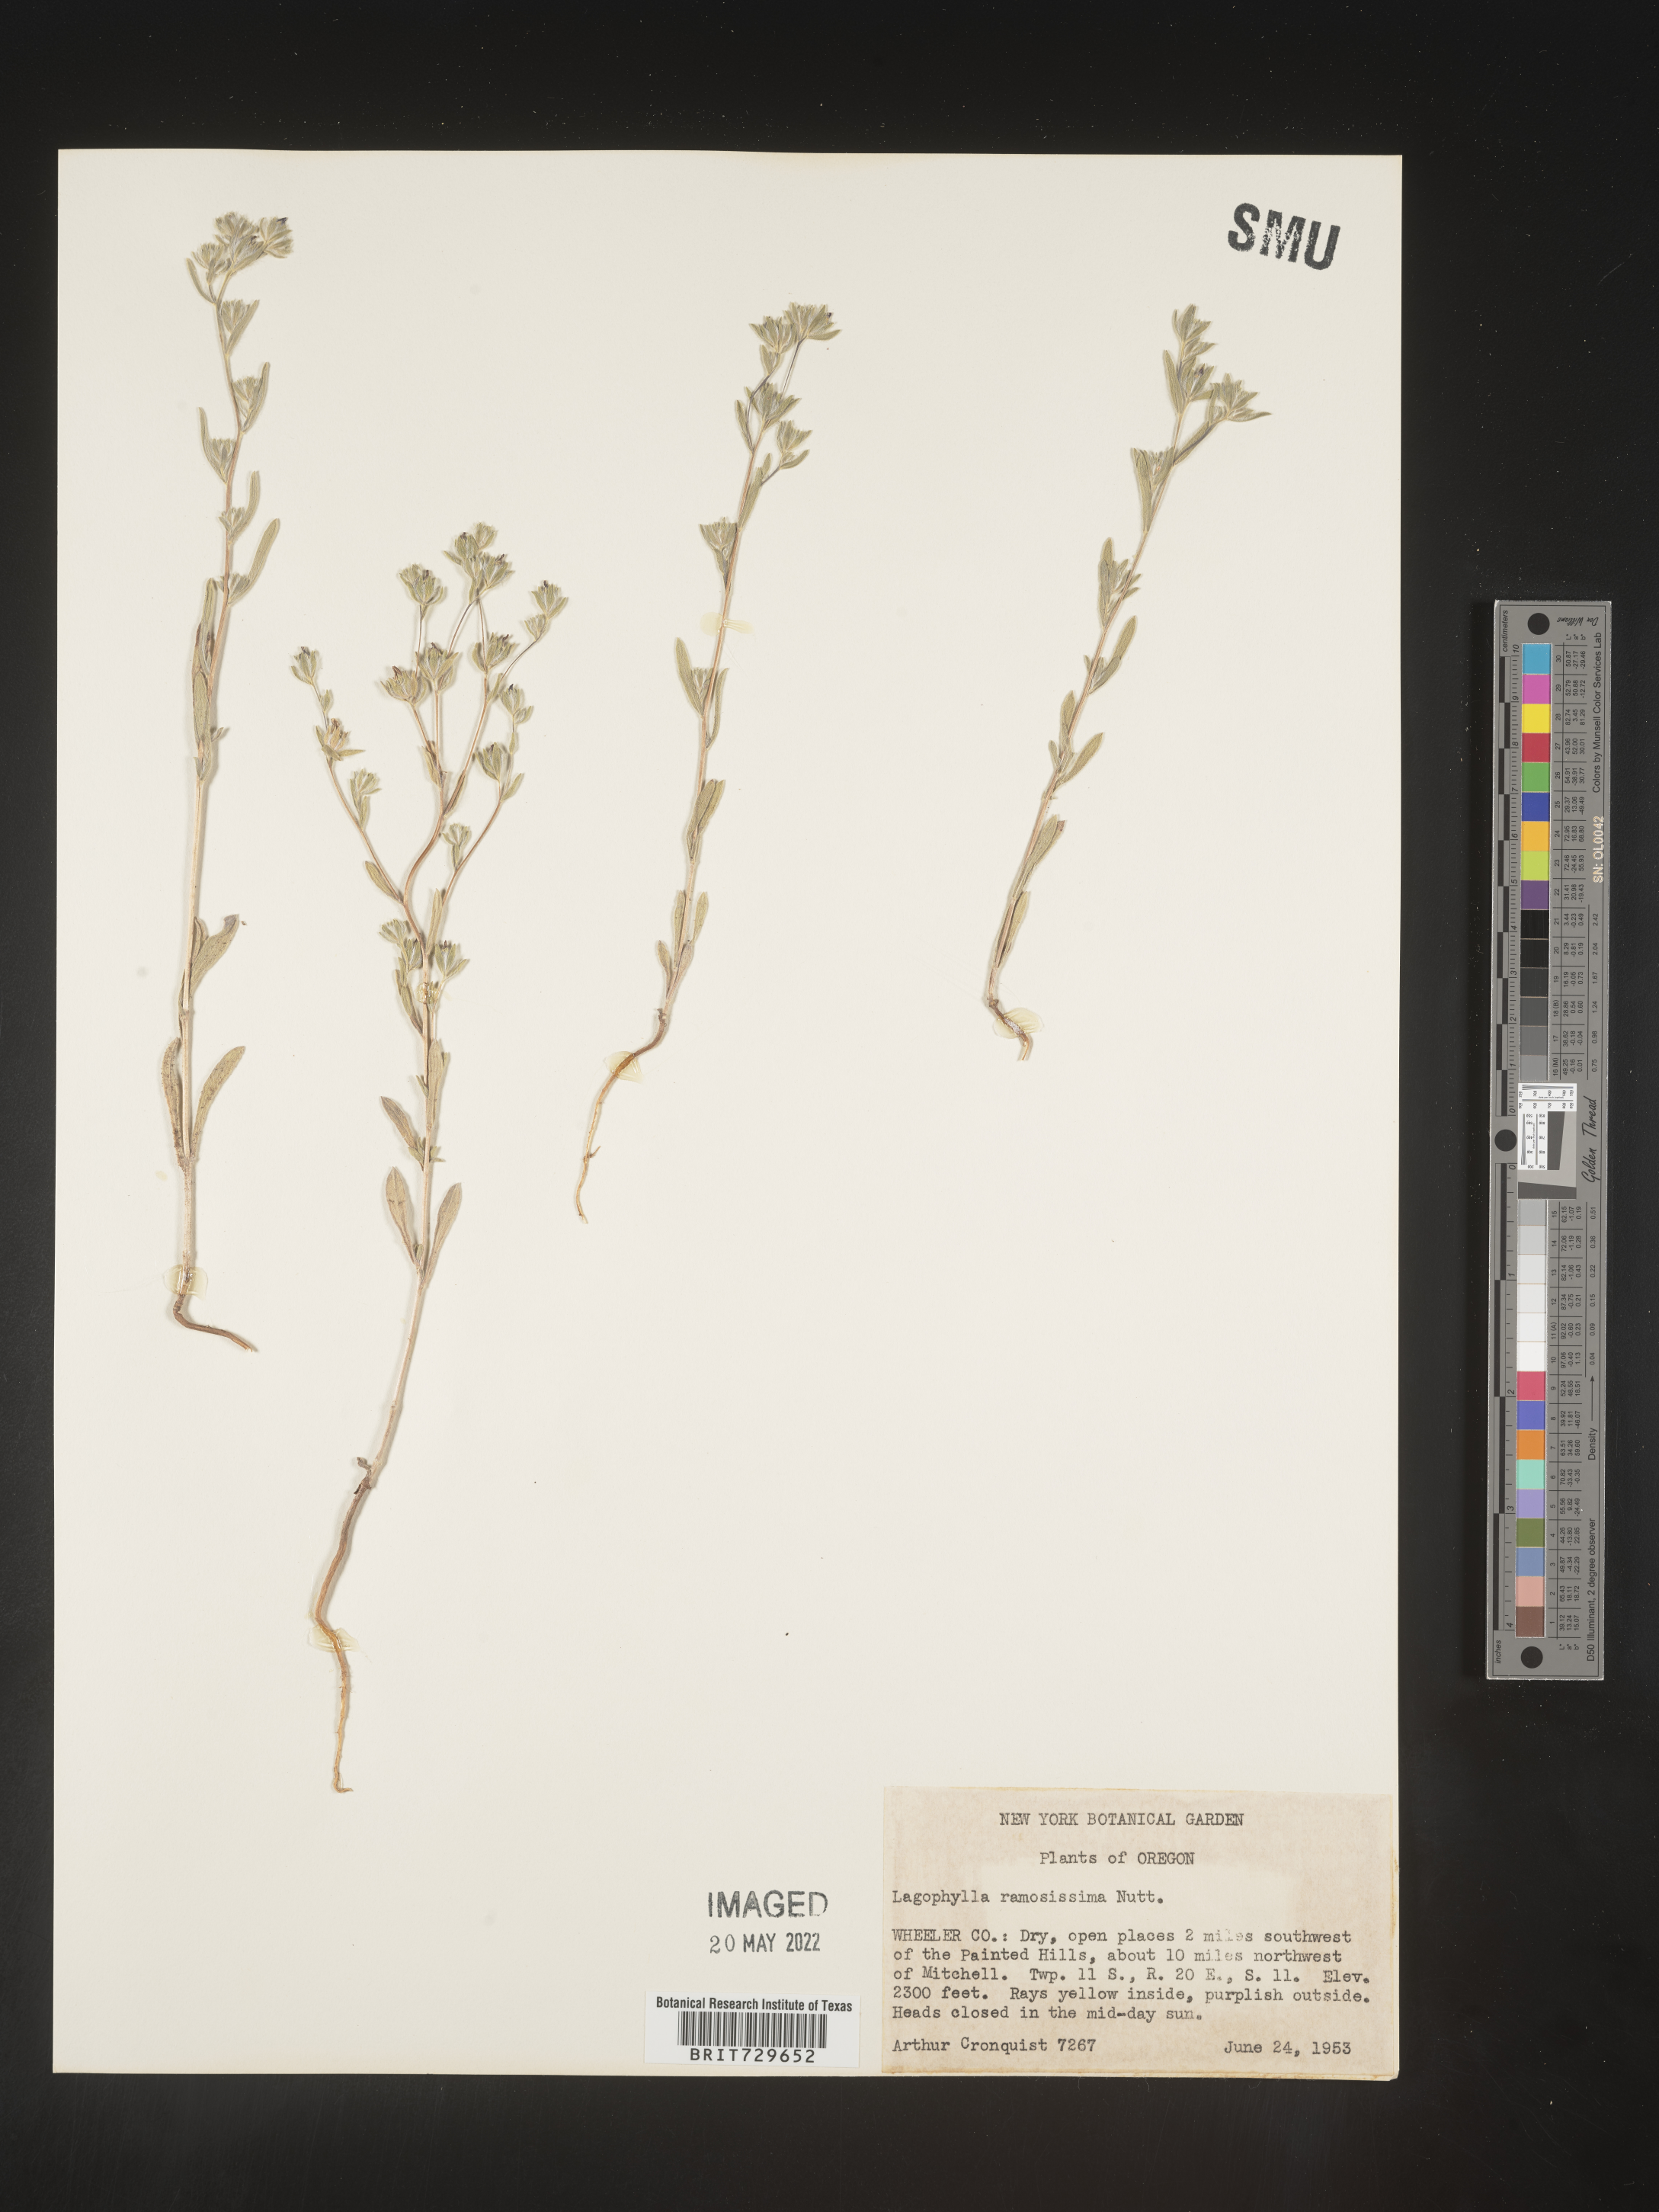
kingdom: Plantae
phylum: Tracheophyta
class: Magnoliopsida
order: Asterales
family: Asteraceae
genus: Lagophylla
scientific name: Lagophylla
